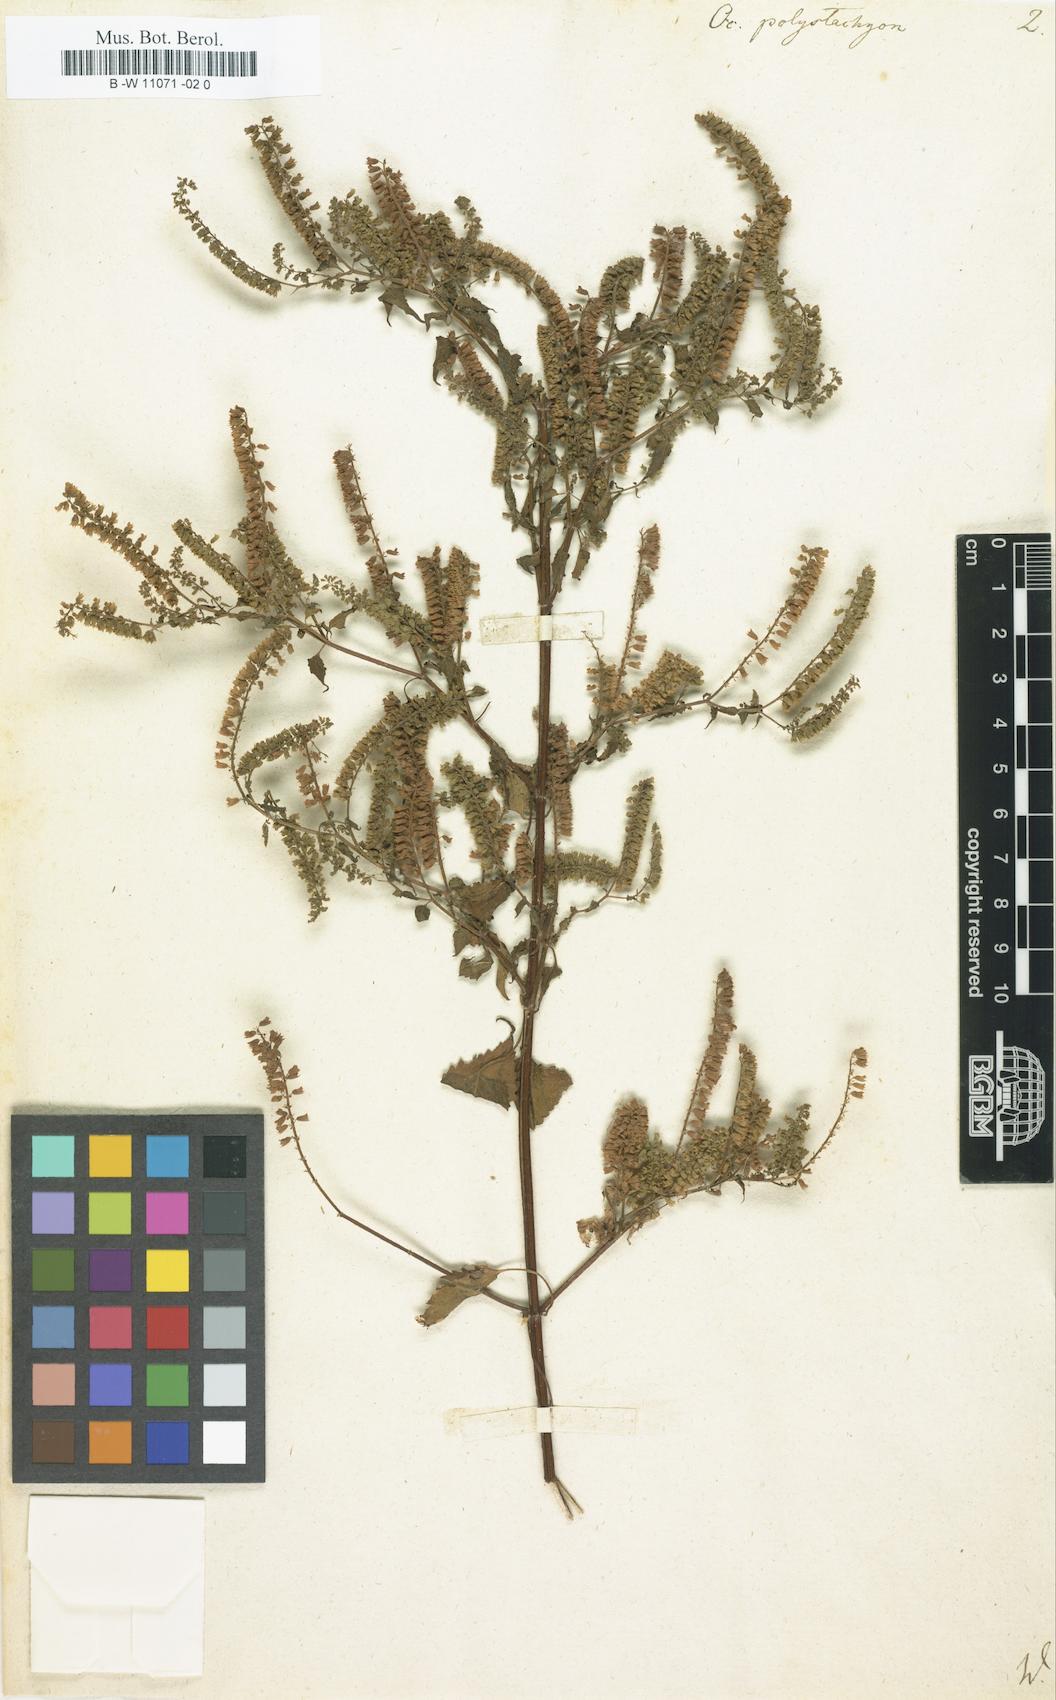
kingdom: Plantae
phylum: Tracheophyta
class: Magnoliopsida
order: Lamiales
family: Lamiaceae
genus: Basilicum
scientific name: Basilicum polystachyon
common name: Musk-basil
